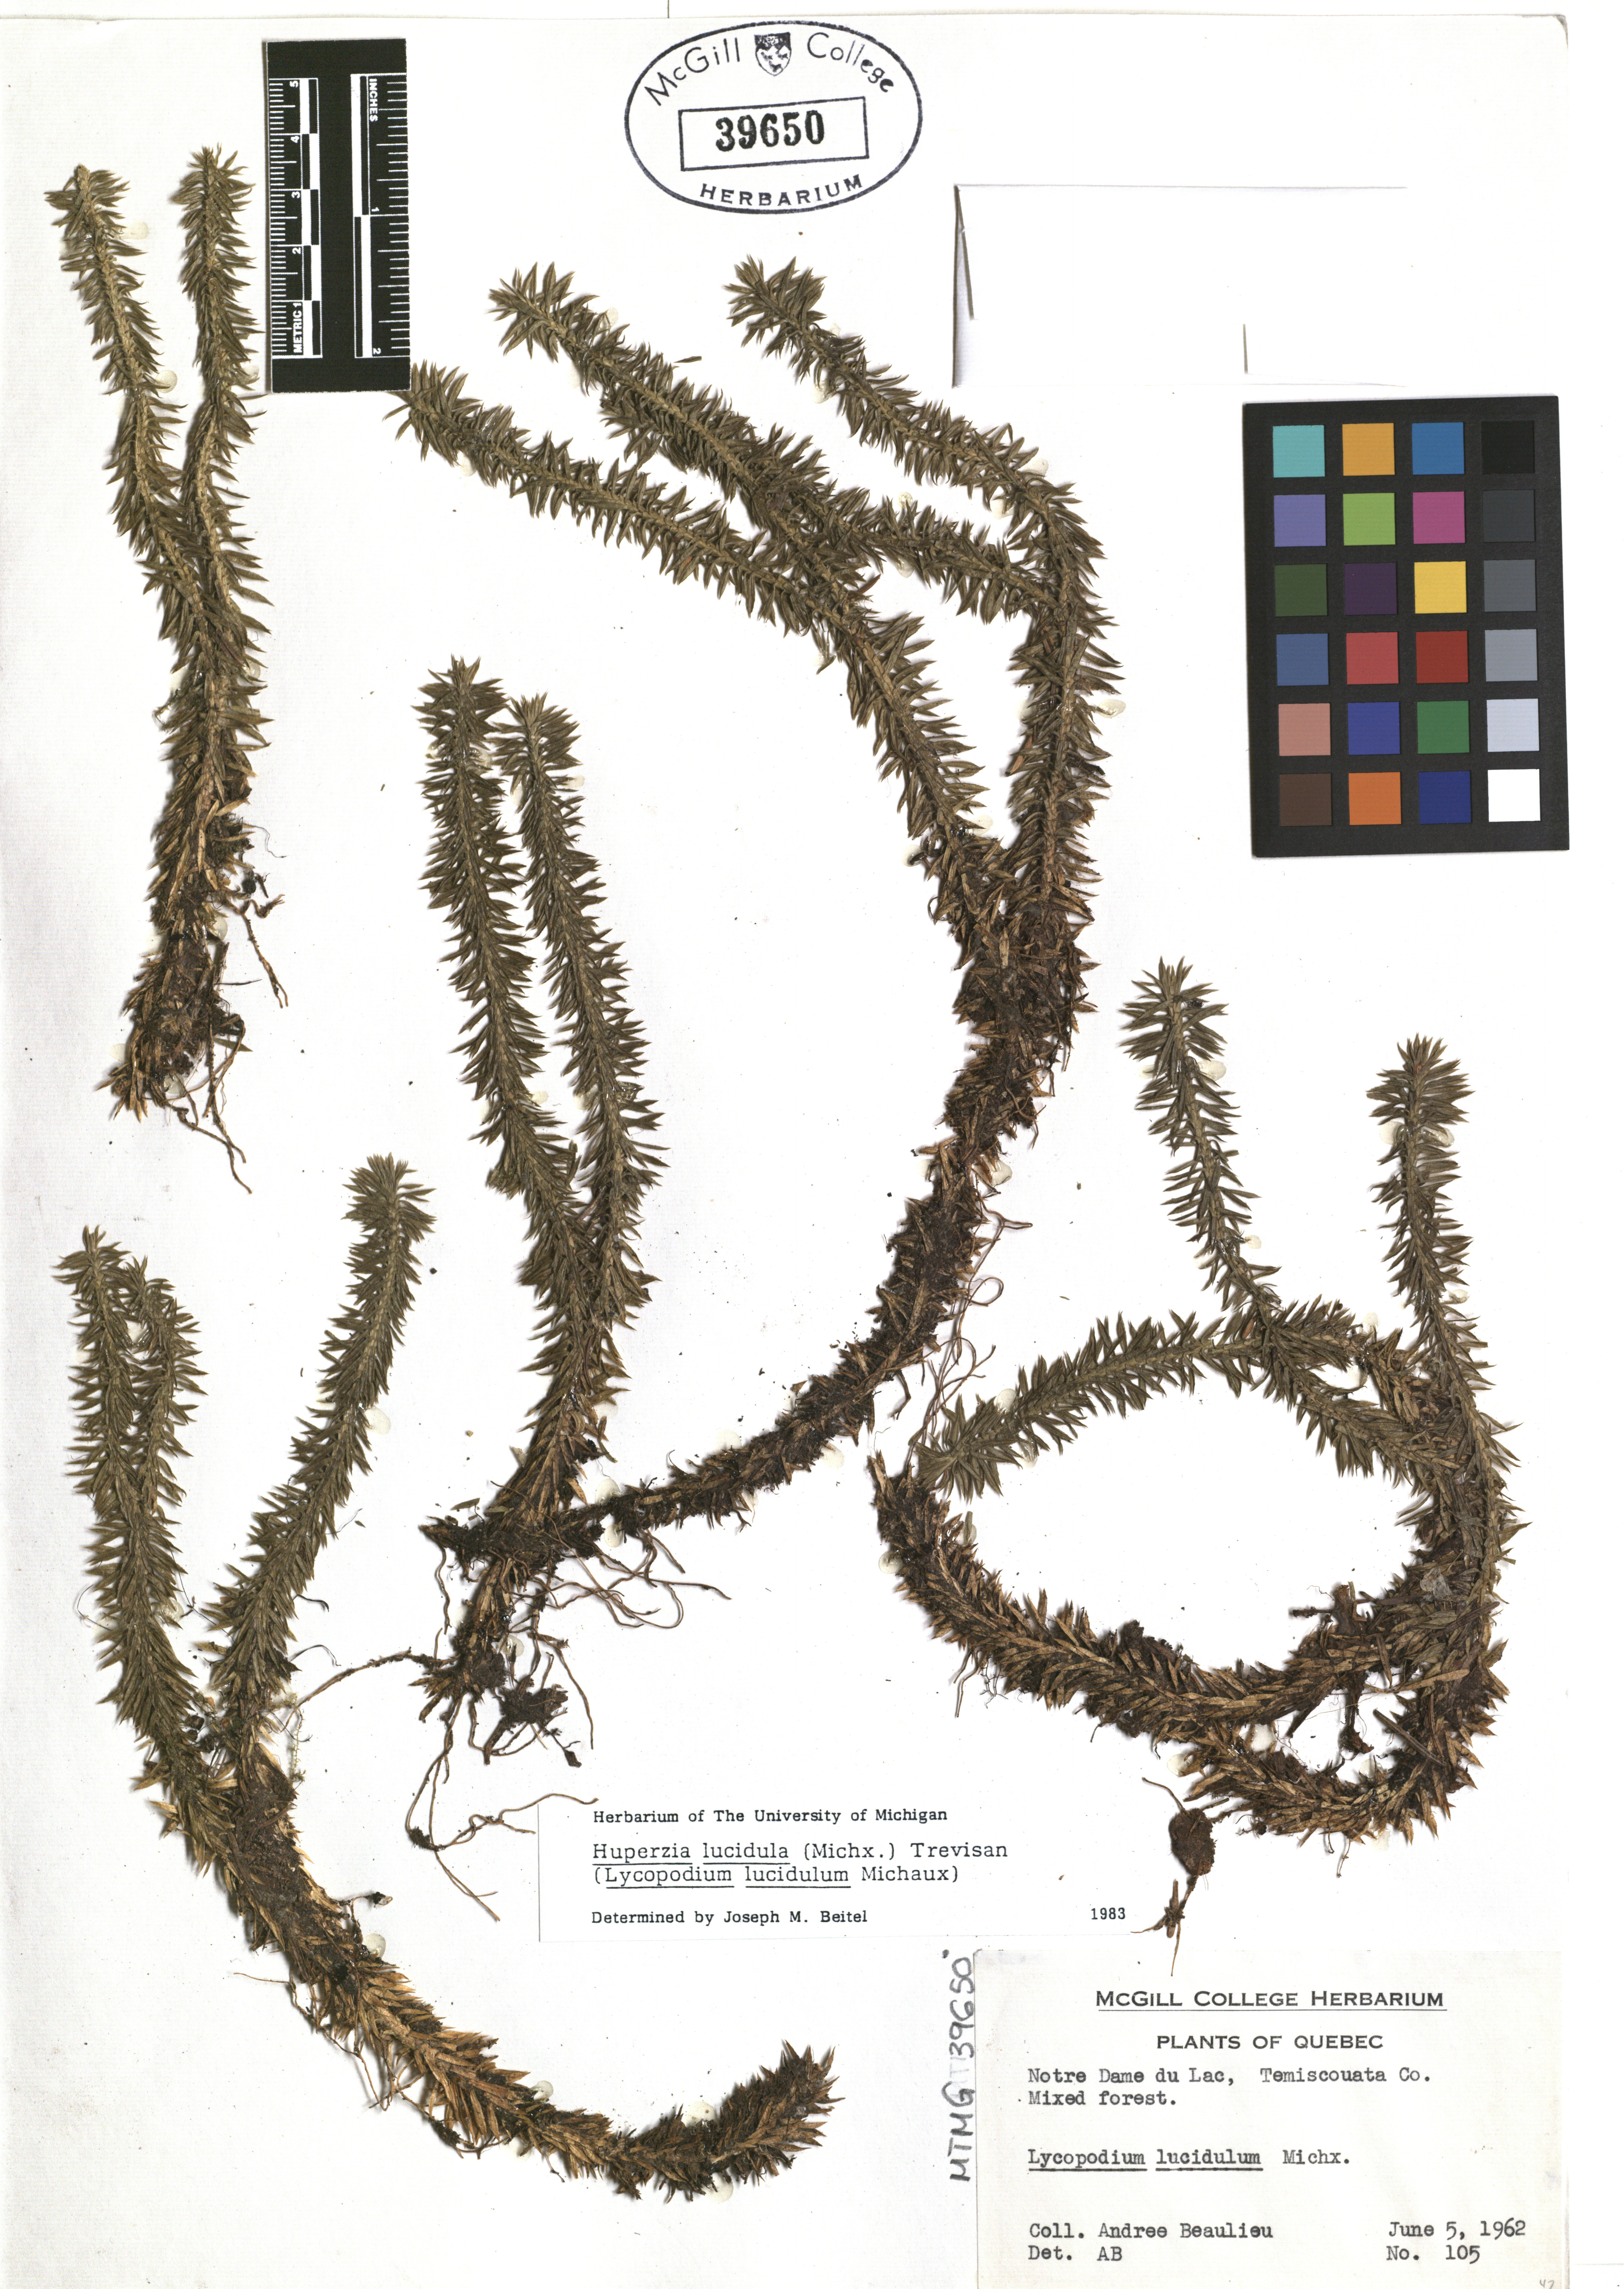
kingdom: Plantae
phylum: Tracheophyta
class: Lycopodiopsida
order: Lycopodiales
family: Lycopodiaceae
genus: Huperzia
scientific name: Huperzia lucidula
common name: Shining clubmoss
